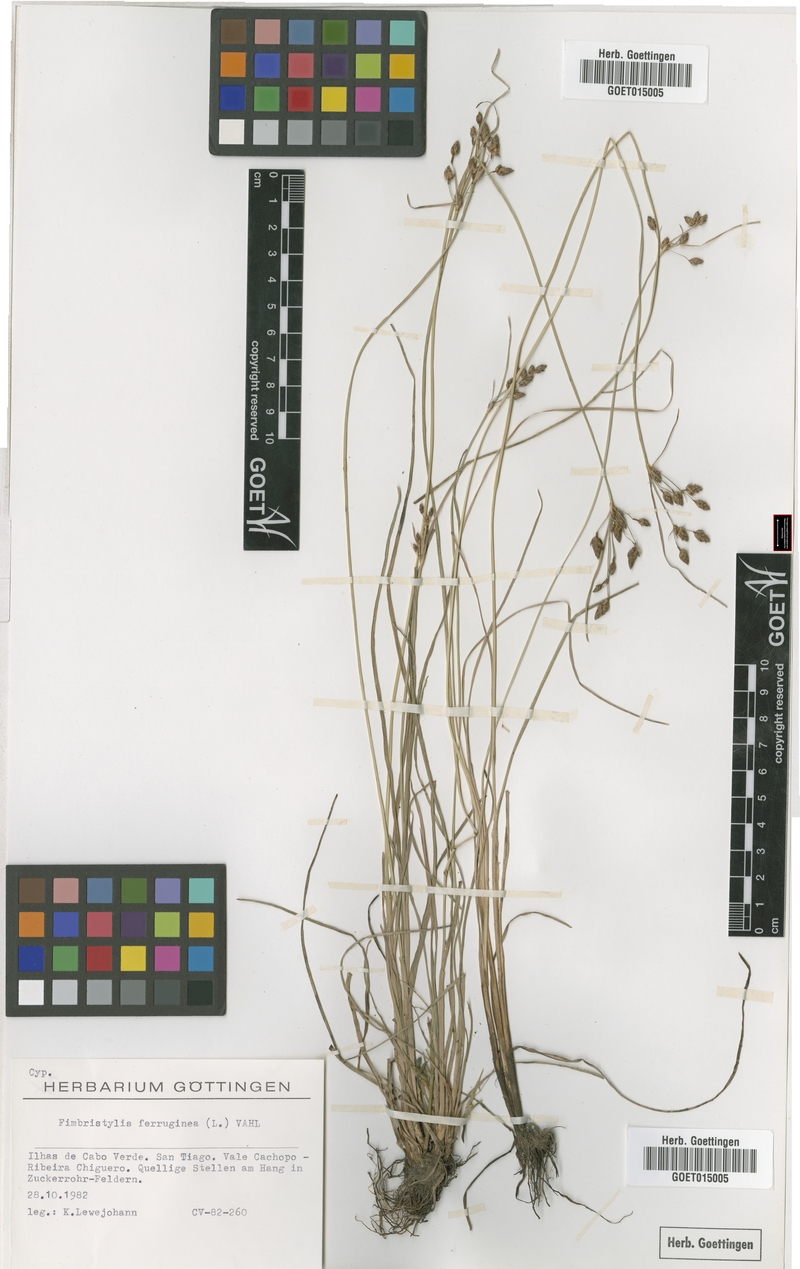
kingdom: Plantae
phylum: Tracheophyta
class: Liliopsida
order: Poales
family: Cyperaceae
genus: Fimbristylis
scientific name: Fimbristylis ferruginea
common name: West indian fimbry
